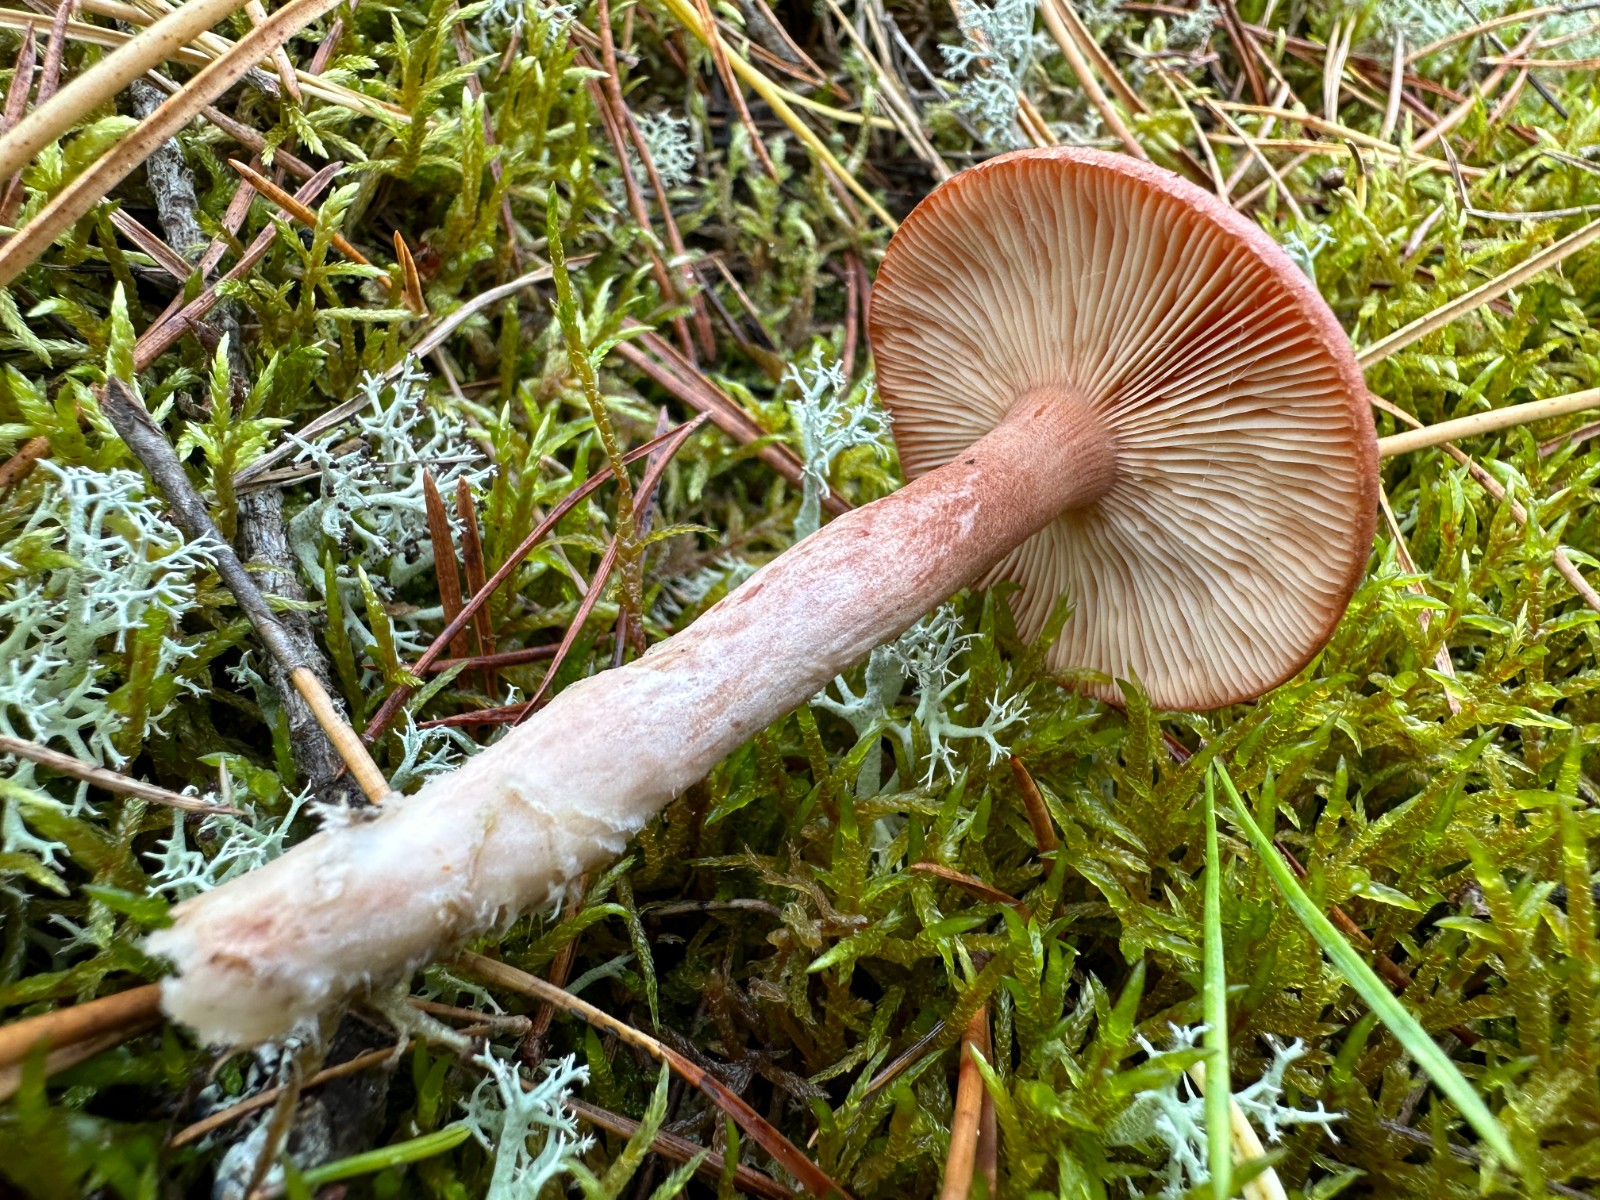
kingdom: Fungi
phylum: Basidiomycota
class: Agaricomycetes
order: Russulales
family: Russulaceae
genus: Lactarius
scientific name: Lactarius rufus
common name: rødbrun mælkehat
